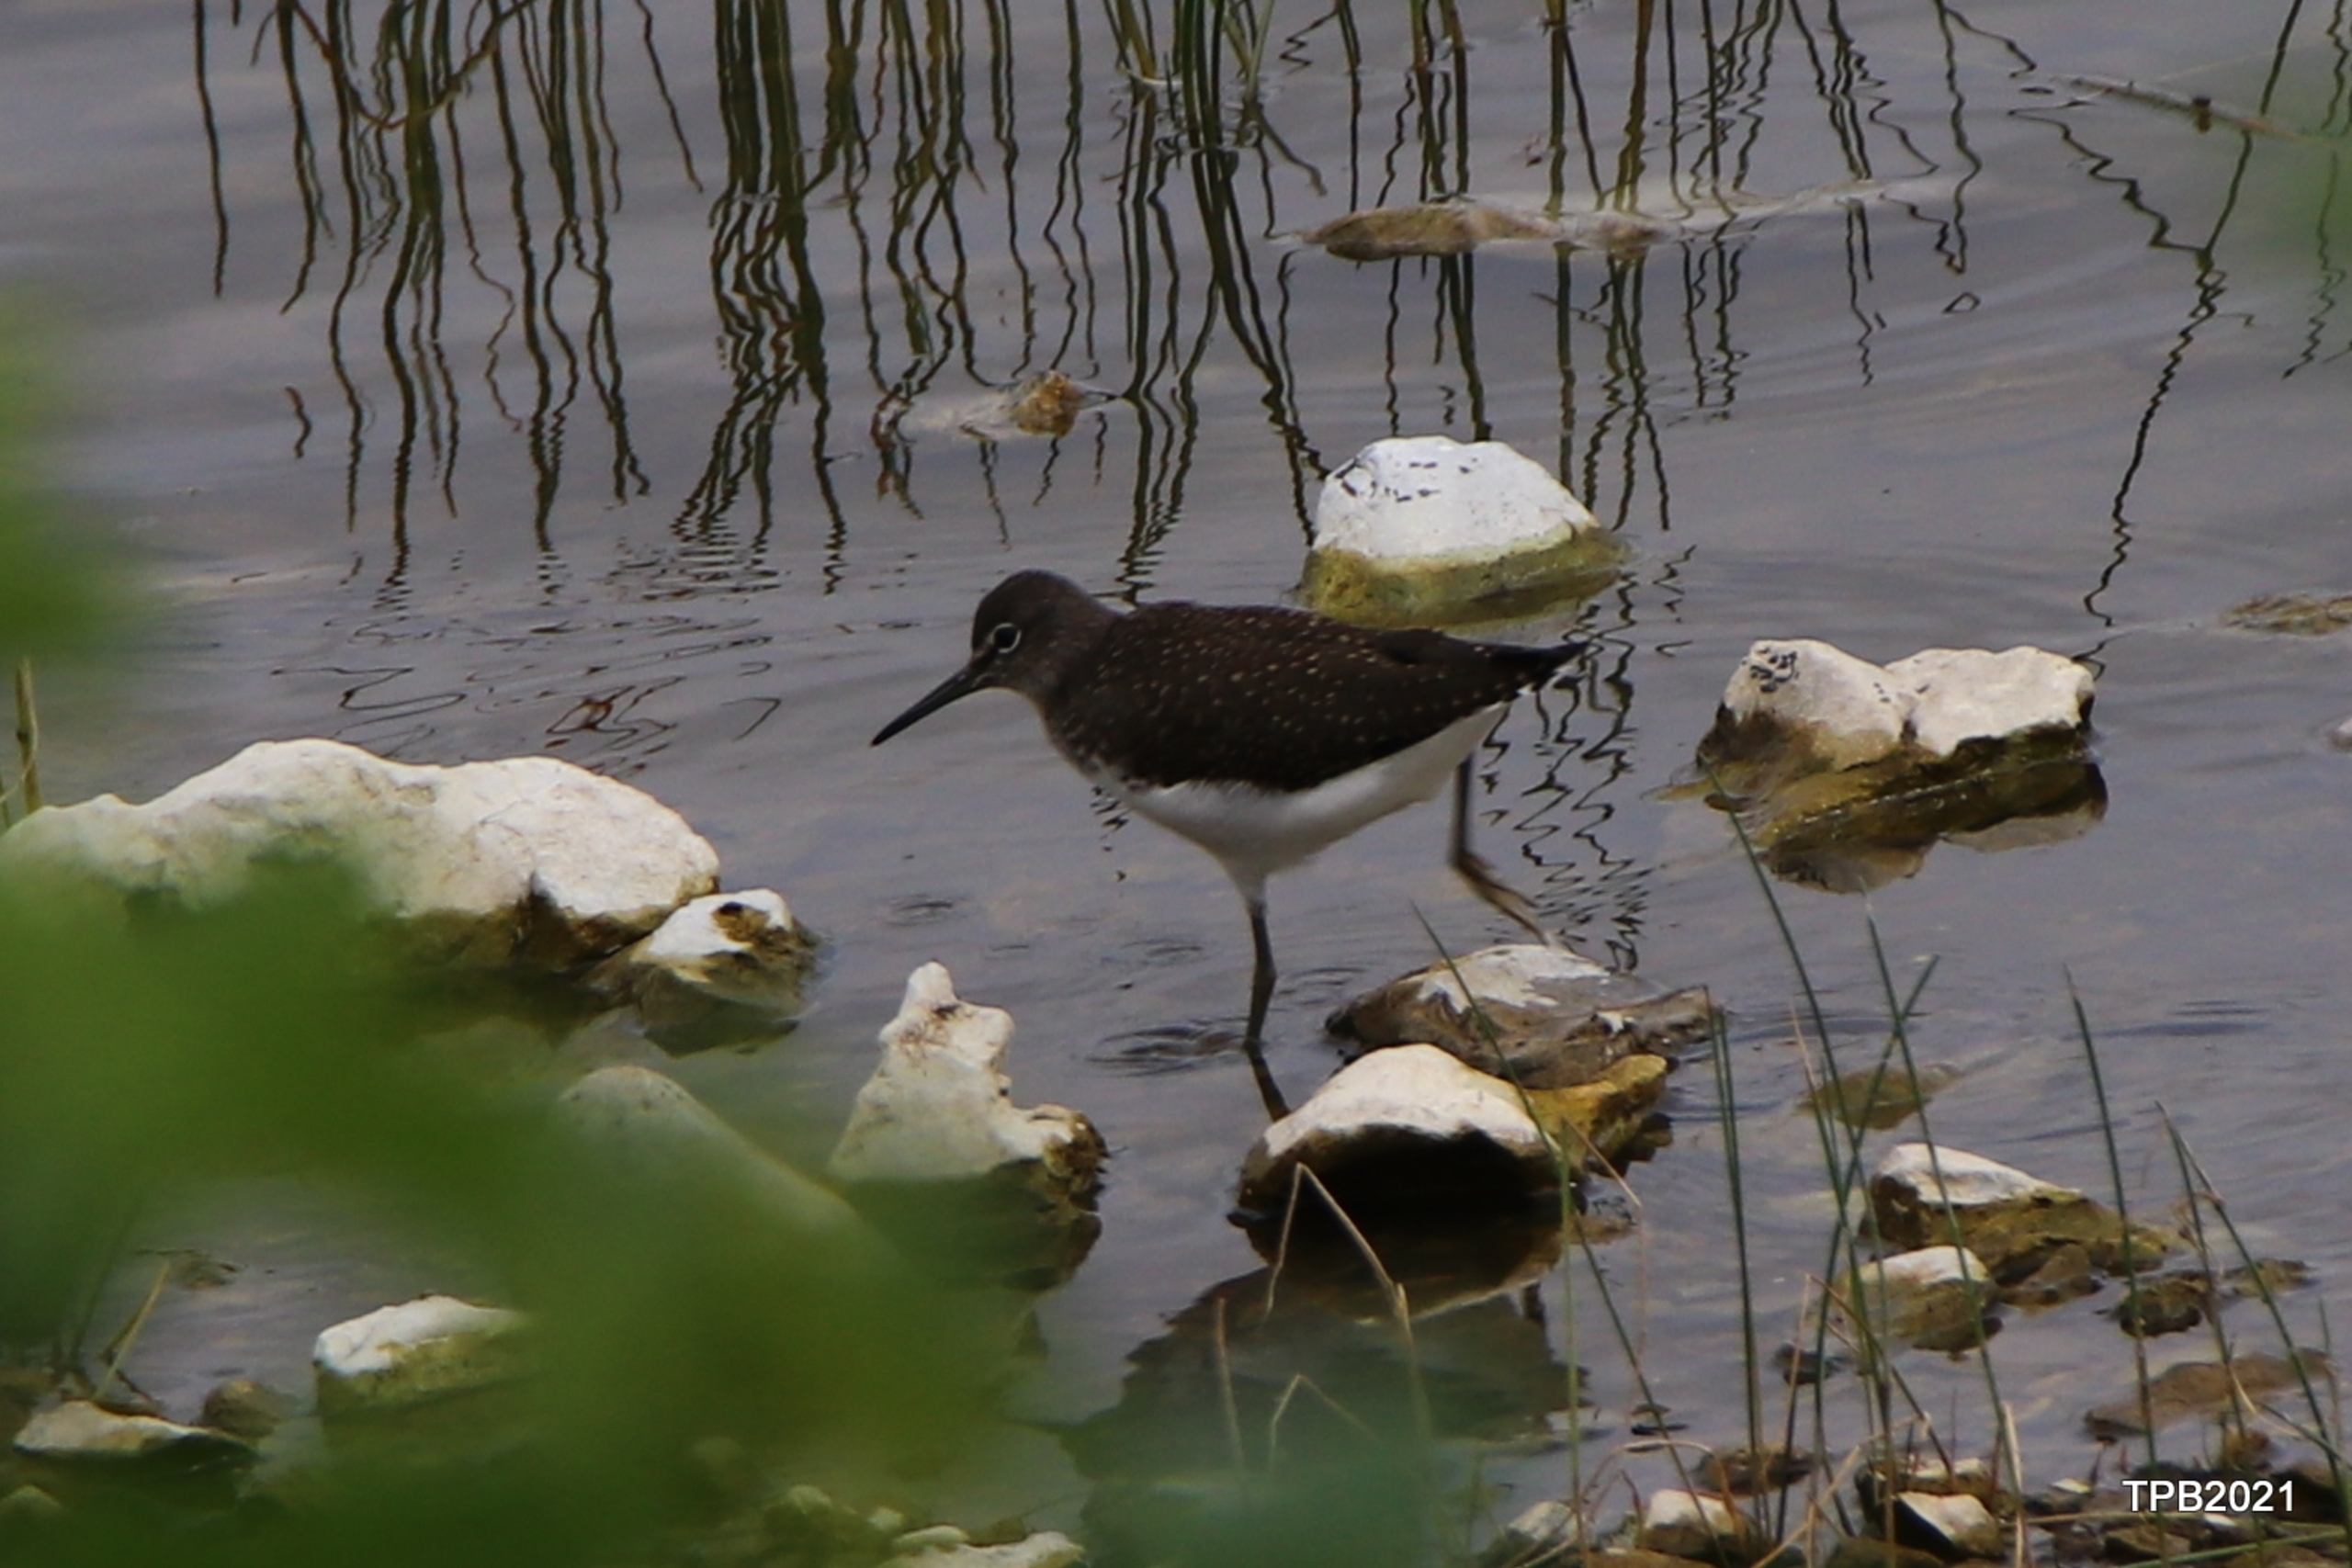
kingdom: Animalia
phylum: Chordata
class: Aves
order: Charadriiformes
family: Scolopacidae
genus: Tringa
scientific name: Tringa ochropus
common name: Svaleklire
